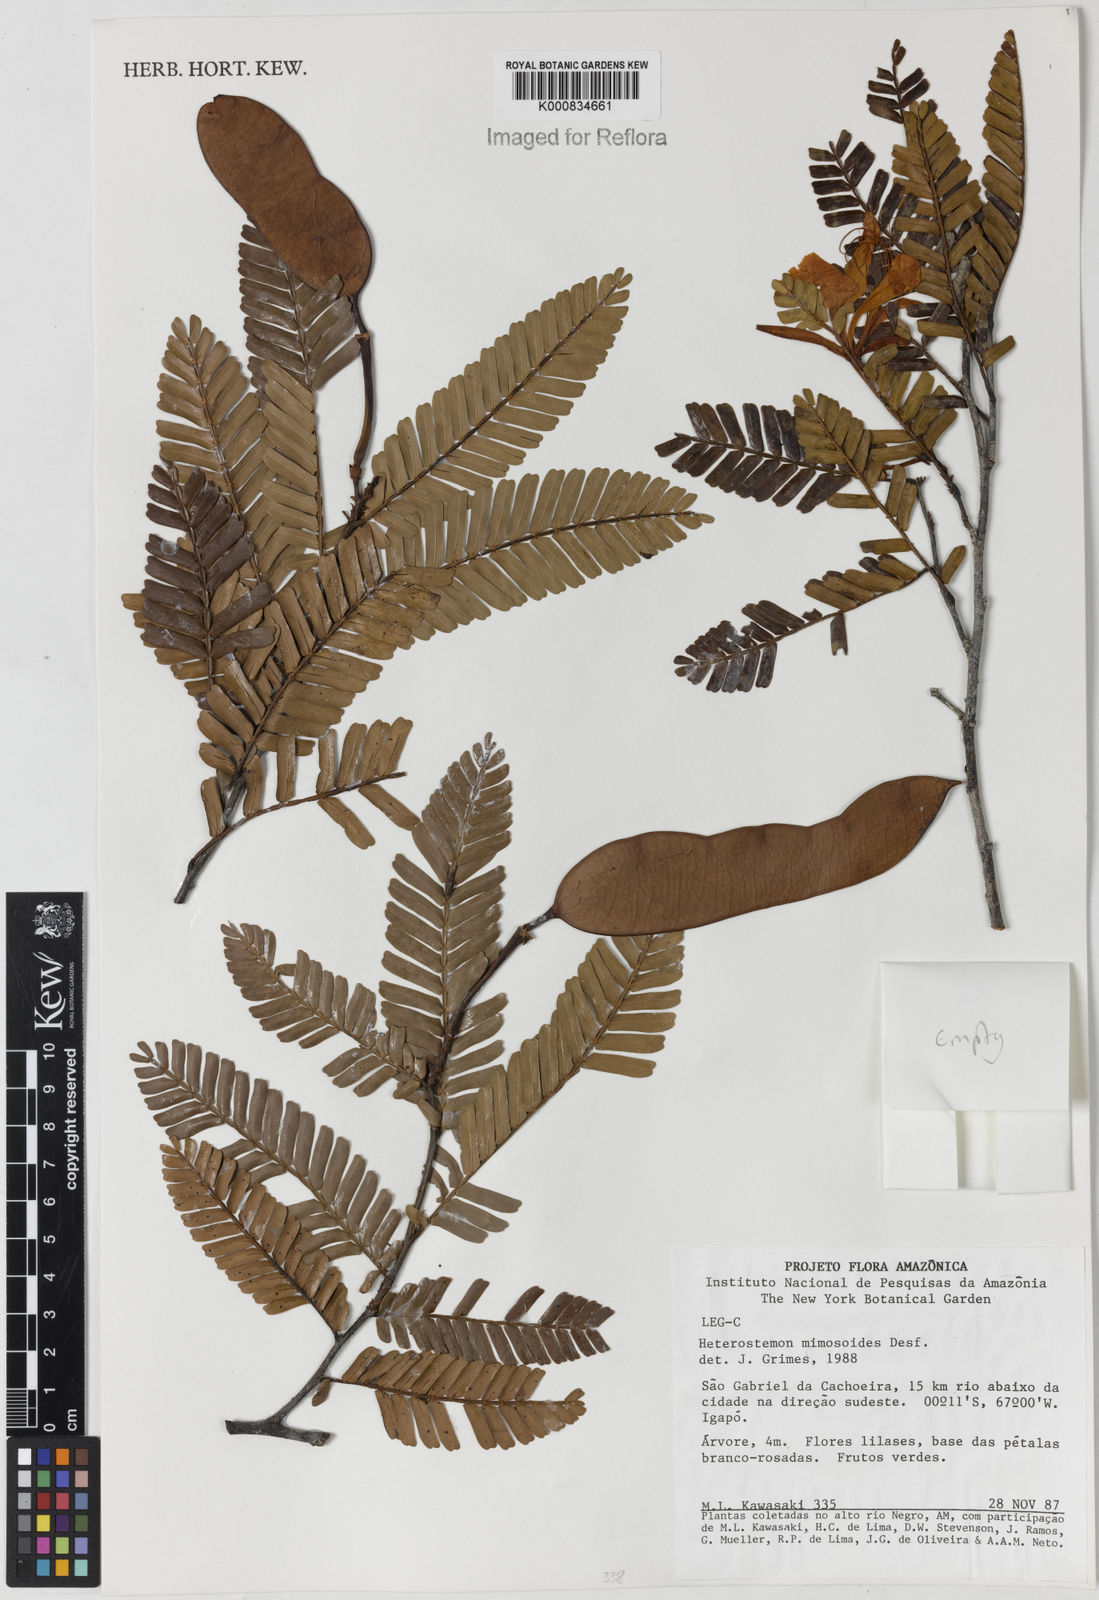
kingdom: Plantae
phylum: Tracheophyta
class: Magnoliopsida
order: Fabales
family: Fabaceae
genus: Heterostemon
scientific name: Heterostemon mimosoides
